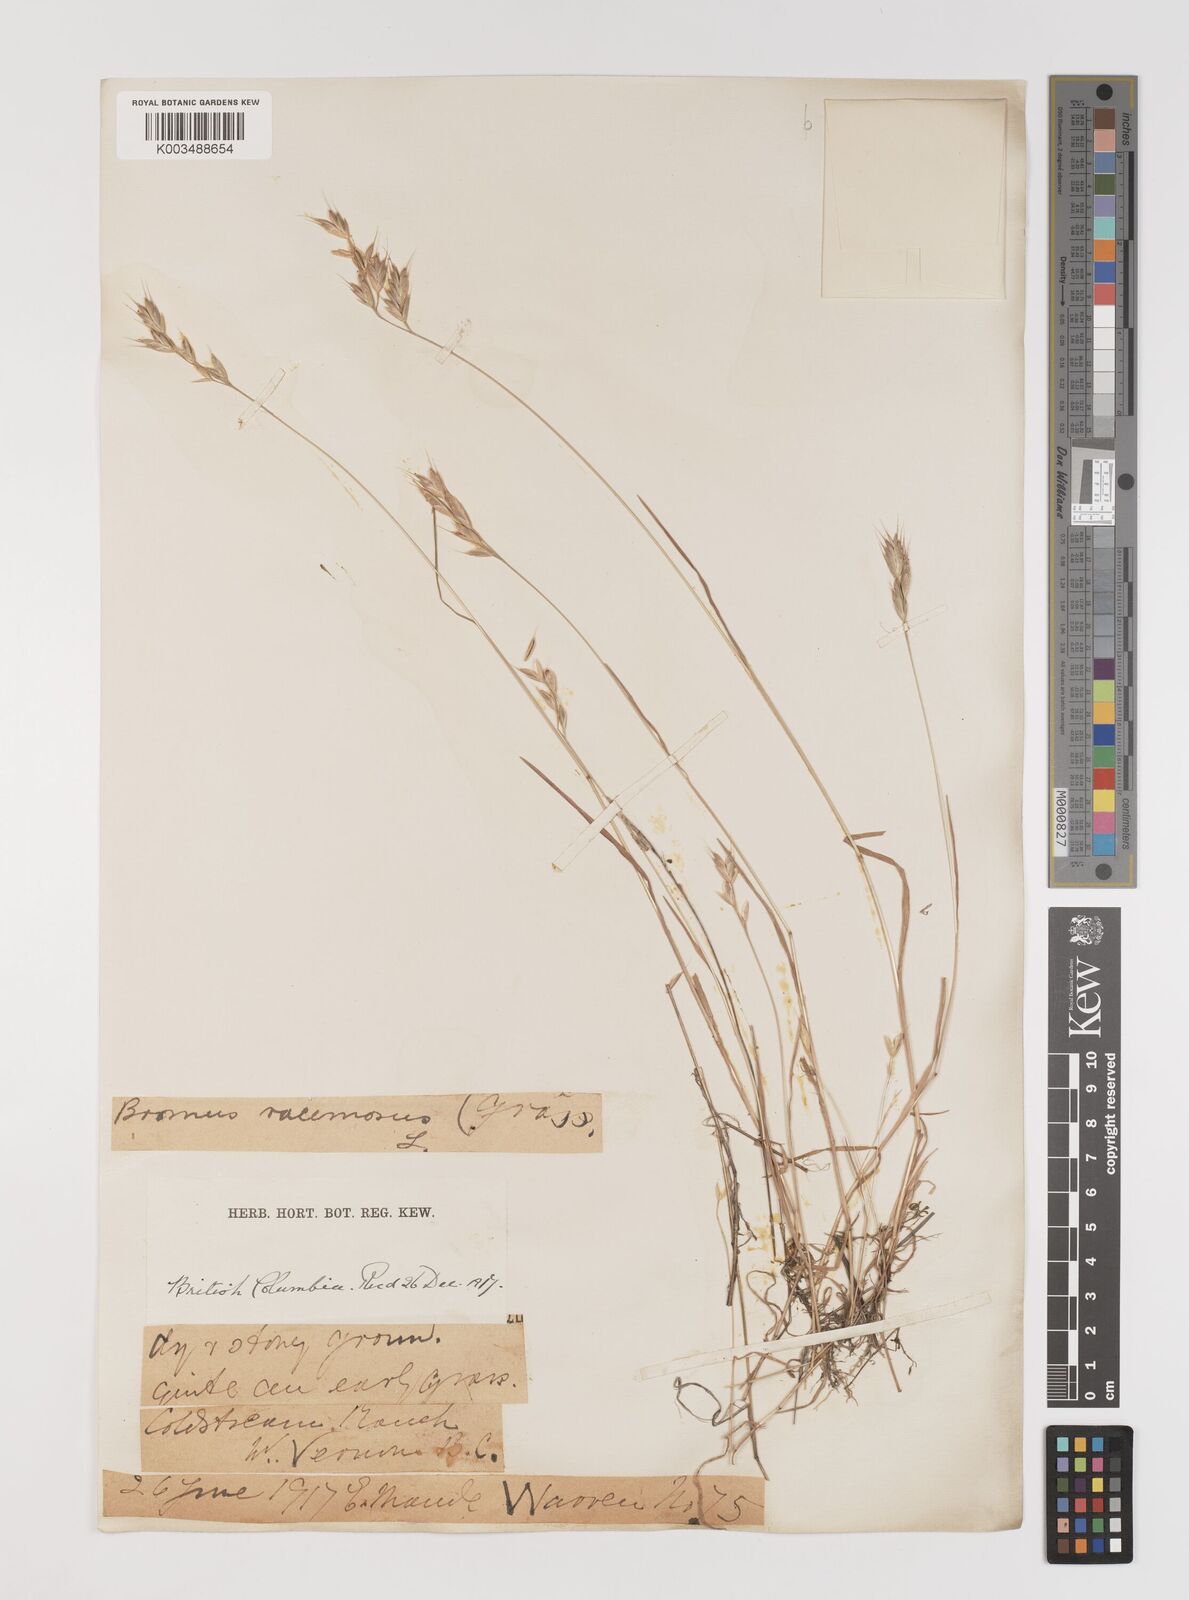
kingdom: Plantae
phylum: Tracheophyta
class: Liliopsida
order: Poales
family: Poaceae
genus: Bromus
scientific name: Bromus hordeaceus
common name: Soft brome
